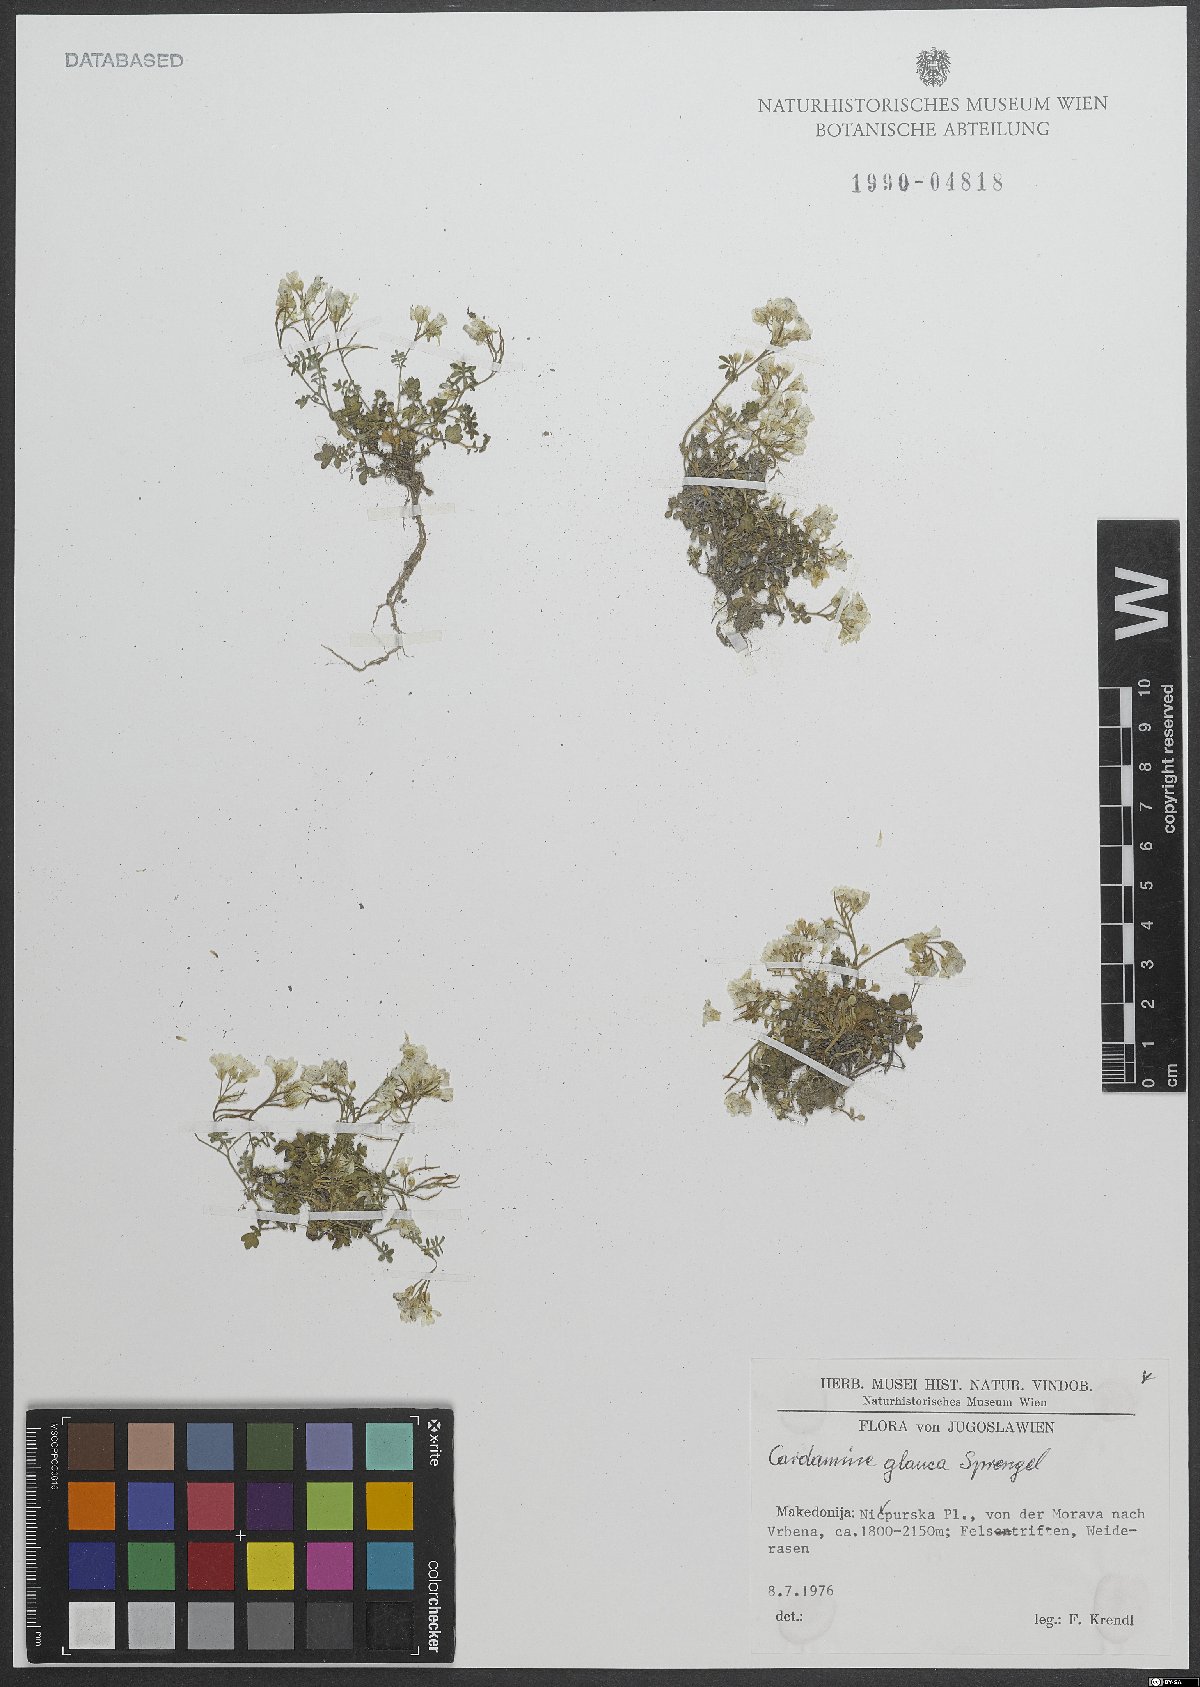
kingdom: Plantae
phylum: Tracheophyta
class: Magnoliopsida
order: Brassicales
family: Brassicaceae
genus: Cardamine
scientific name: Cardamine glauca
